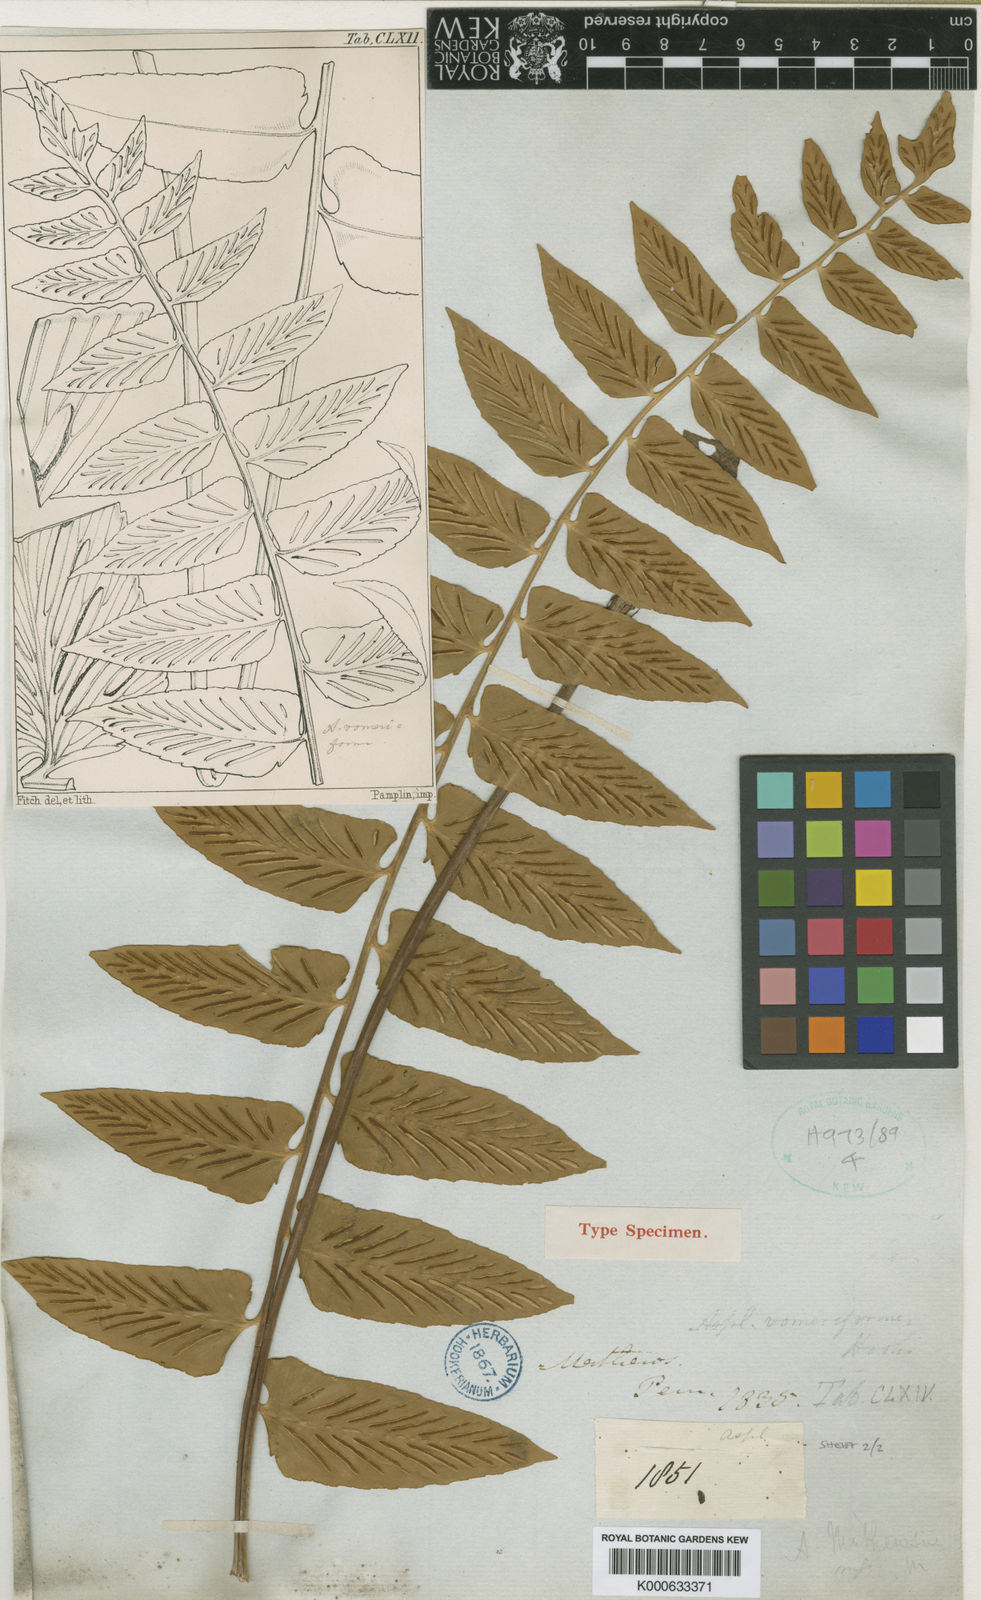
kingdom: Plantae
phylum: Tracheophyta
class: Polypodiopsida
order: Polypodiales
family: Aspleniaceae
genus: Asplenium
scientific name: Asplenium vomeriforme
